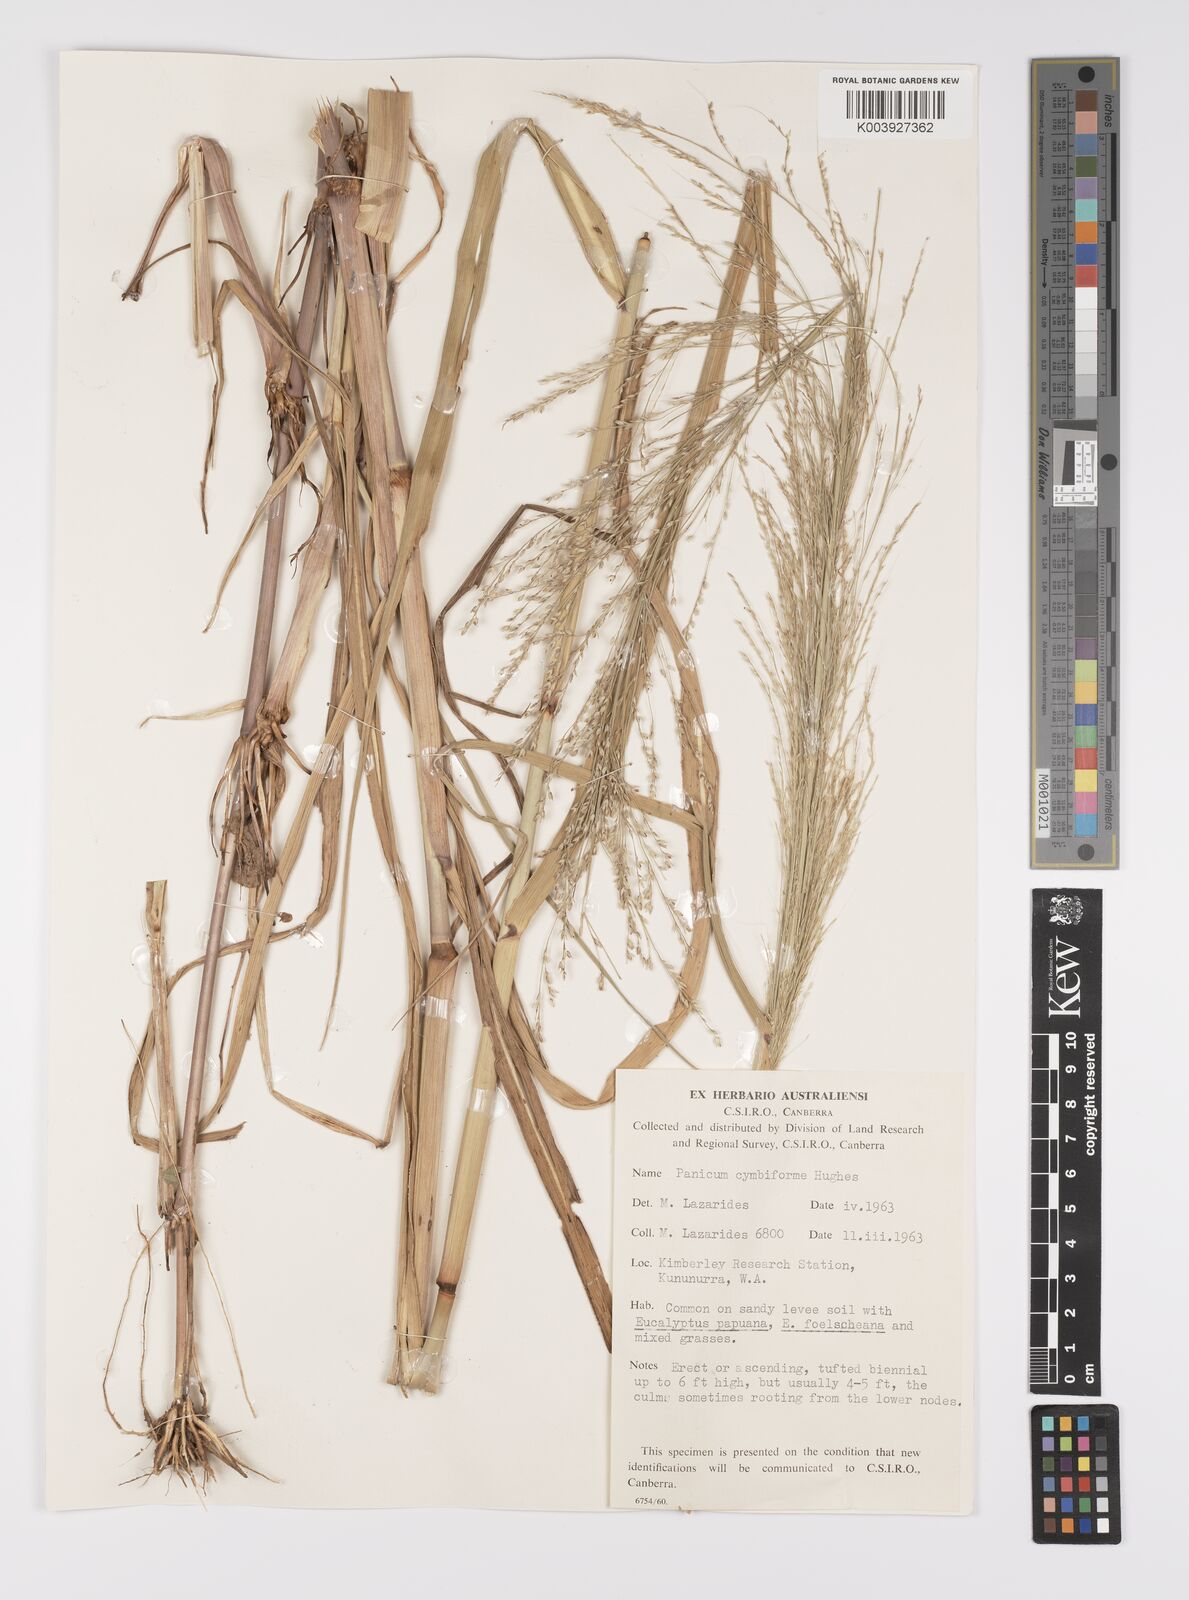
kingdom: Plantae
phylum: Tracheophyta
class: Liliopsida
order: Poales
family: Poaceae
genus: Whiteochloa
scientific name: Whiteochloa cymbiformis
